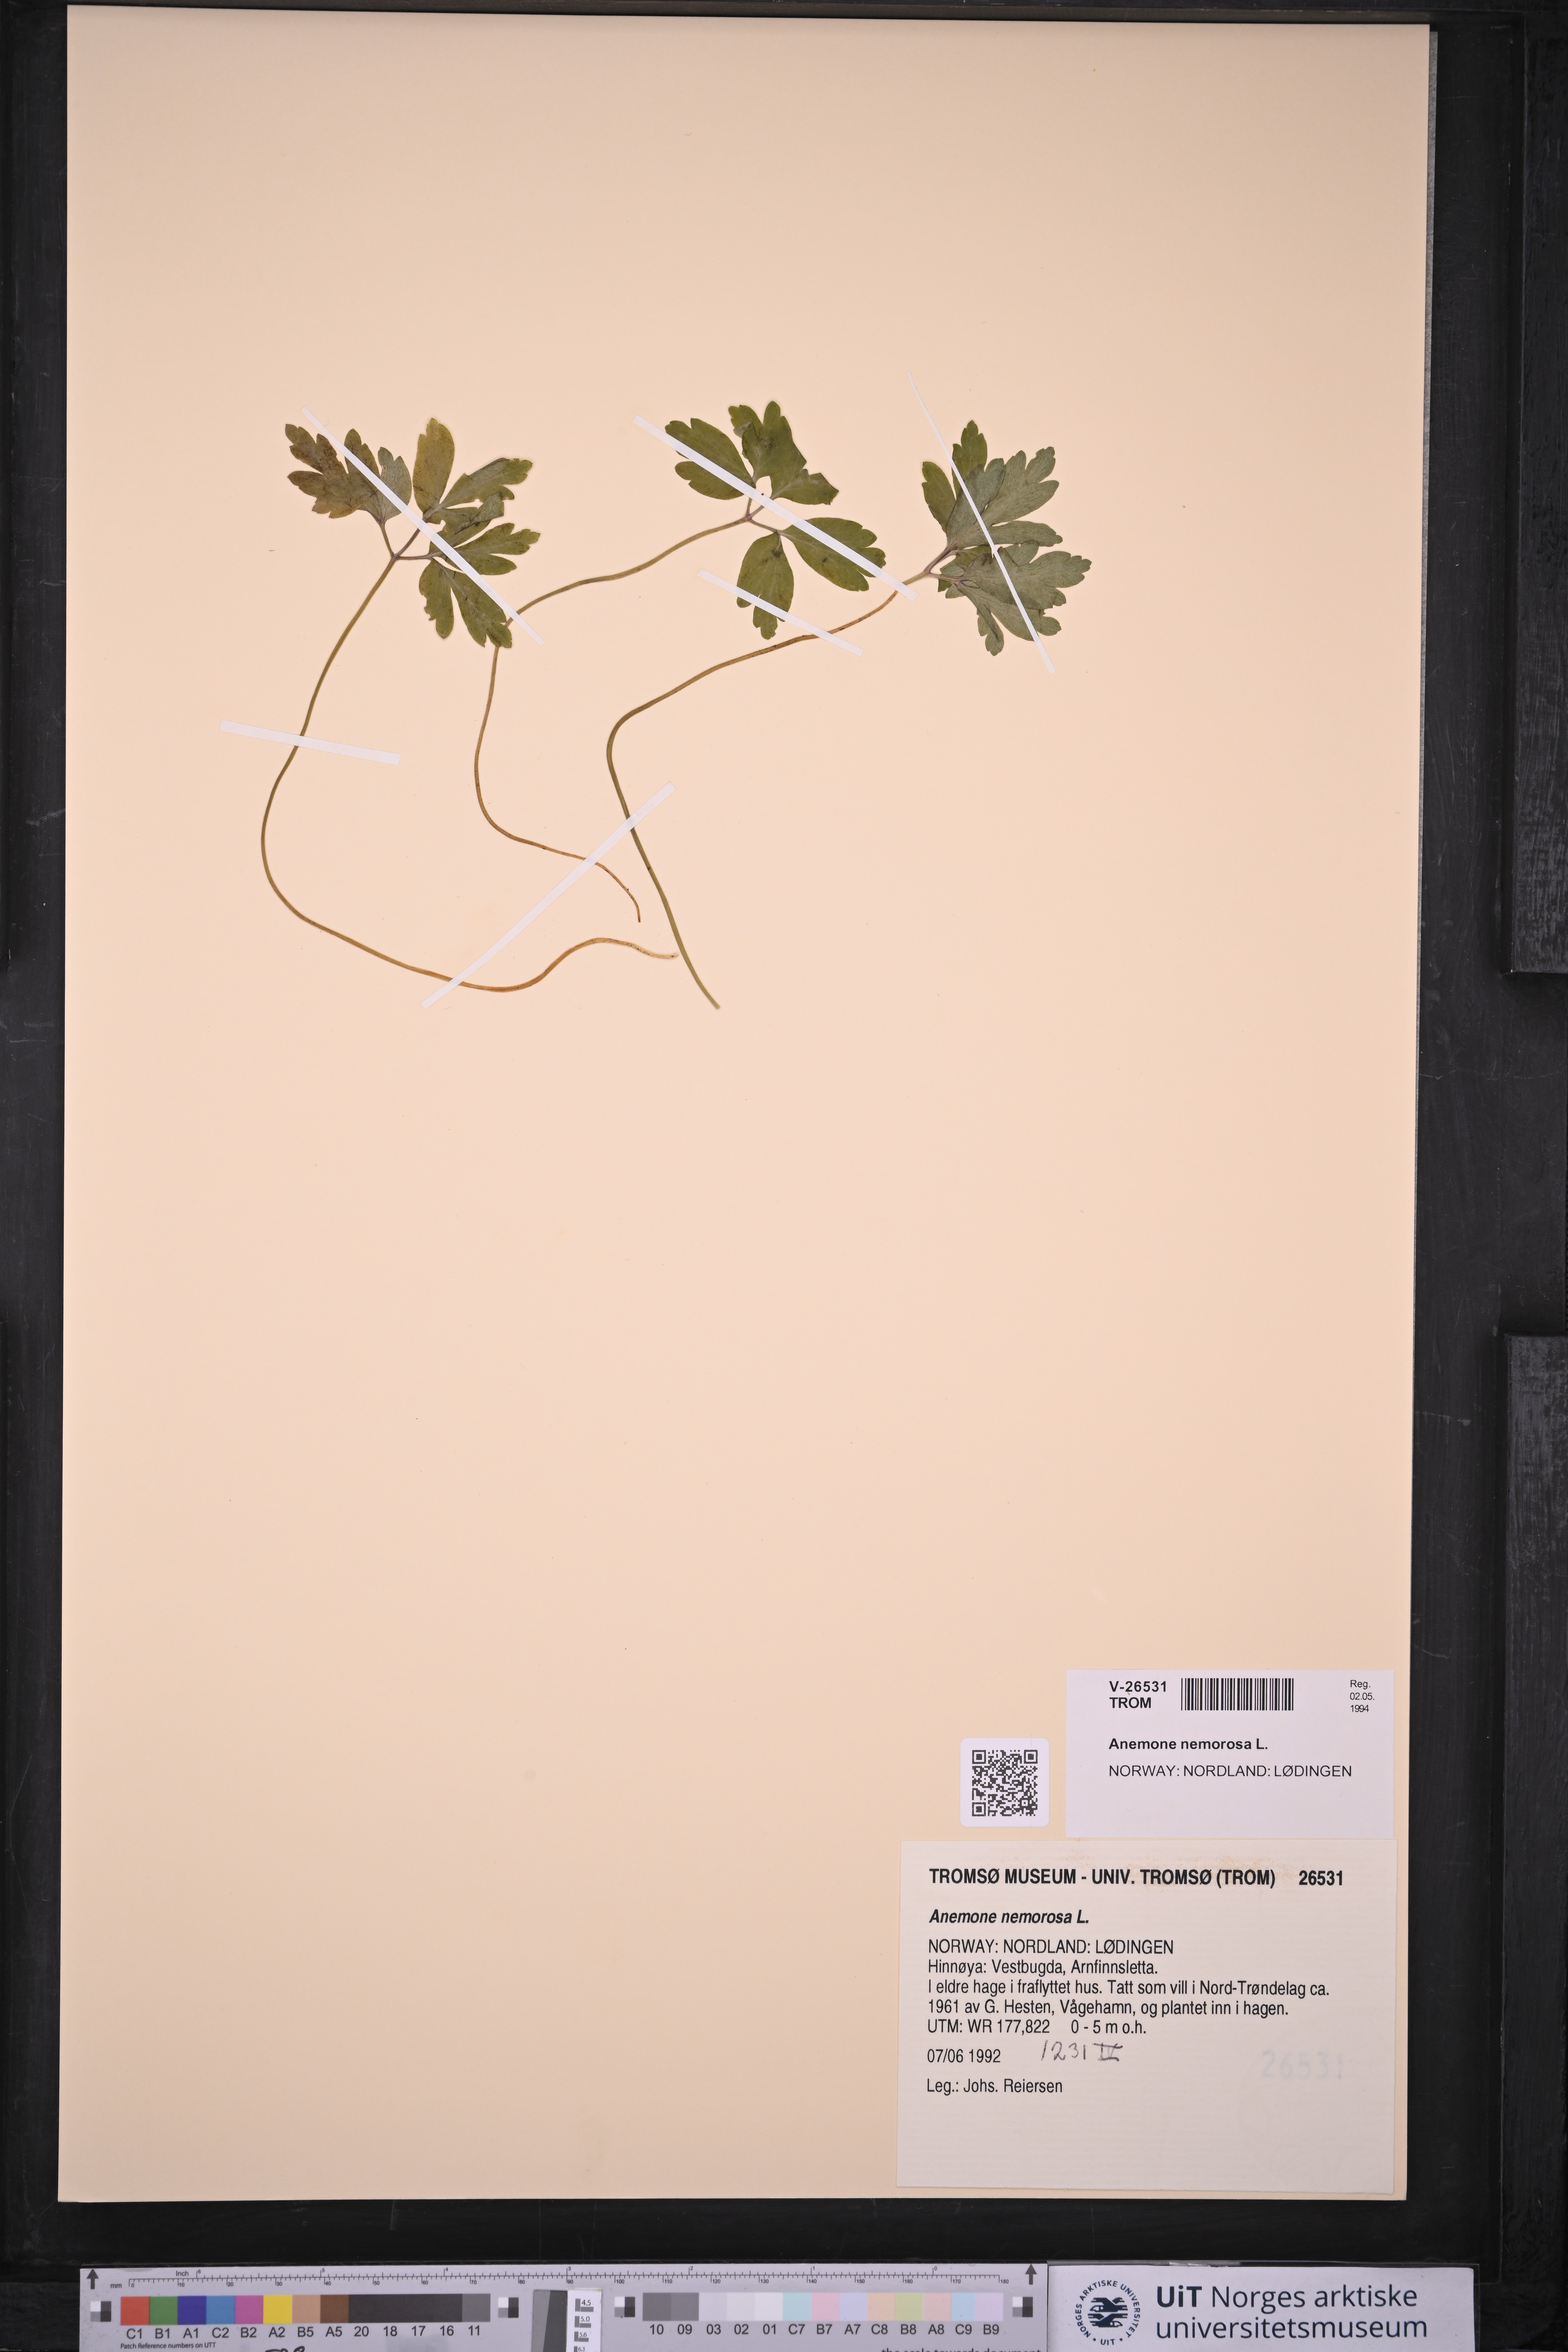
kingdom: Plantae
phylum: Tracheophyta
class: Magnoliopsida
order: Ranunculales
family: Ranunculaceae
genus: Anemone
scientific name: Anemone nemorosa
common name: Wood anemone
